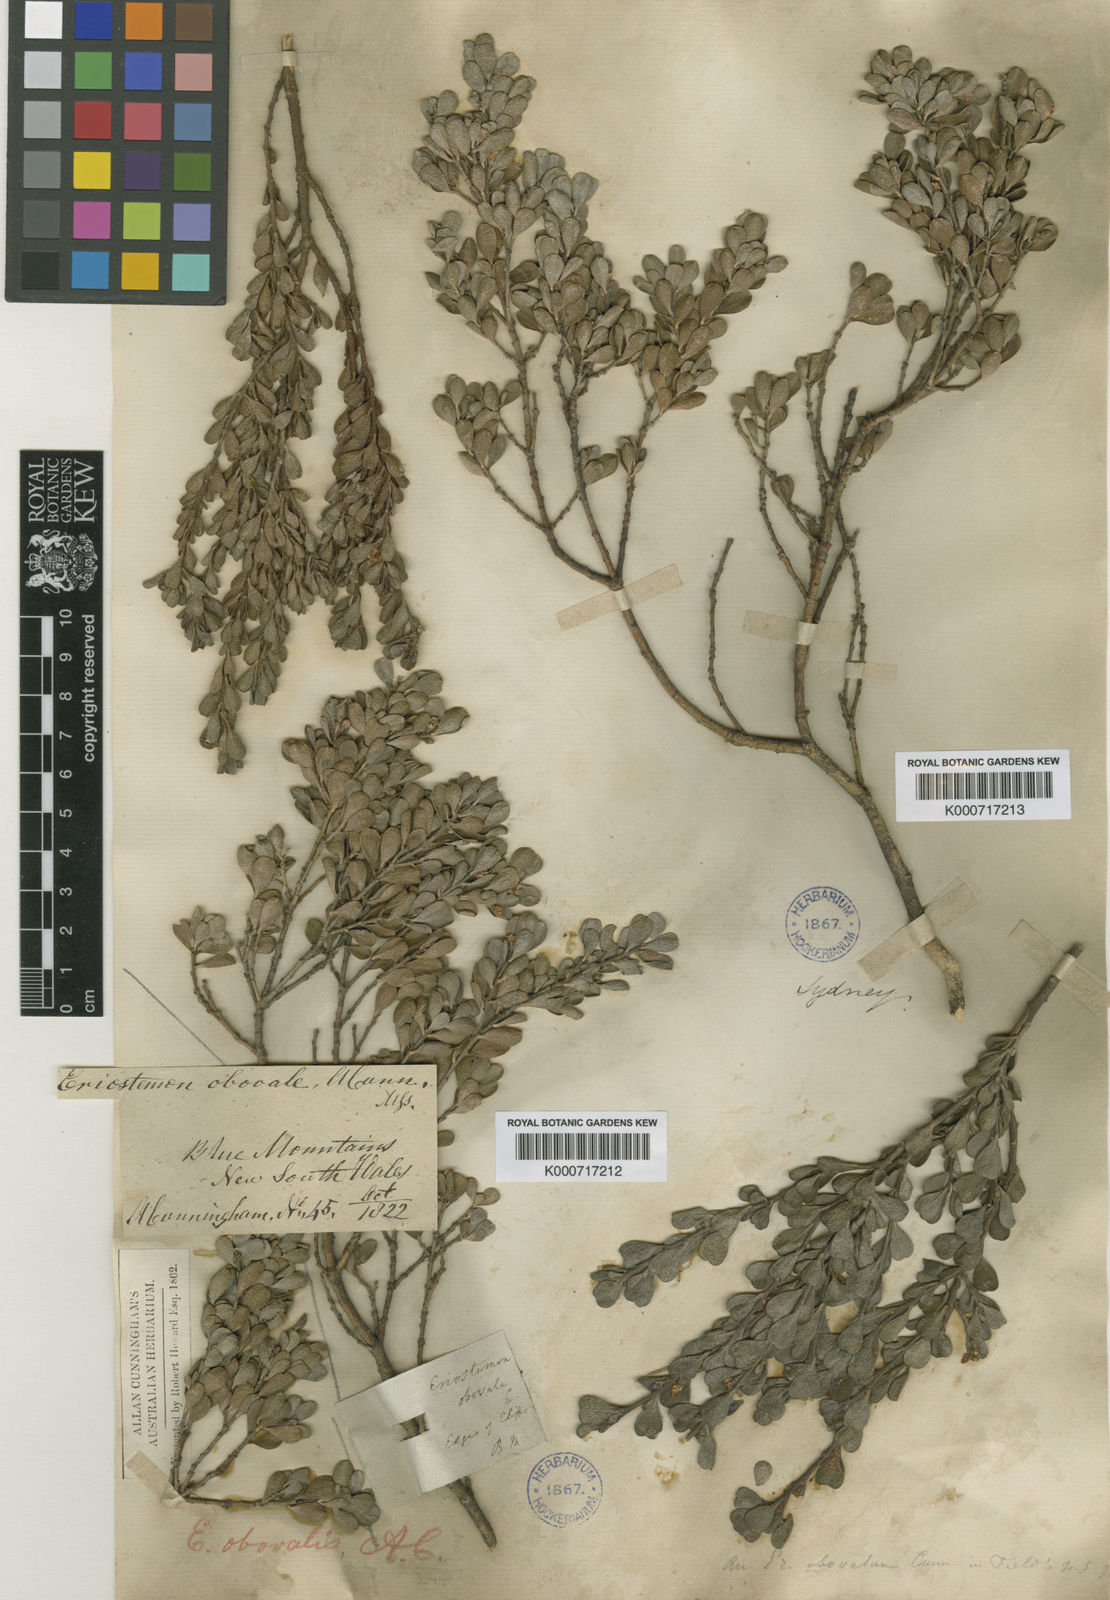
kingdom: Plantae
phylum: Tracheophyta
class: Magnoliopsida
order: Sapindales
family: Rutaceae
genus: Philotheca
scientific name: Philotheca obovalis
